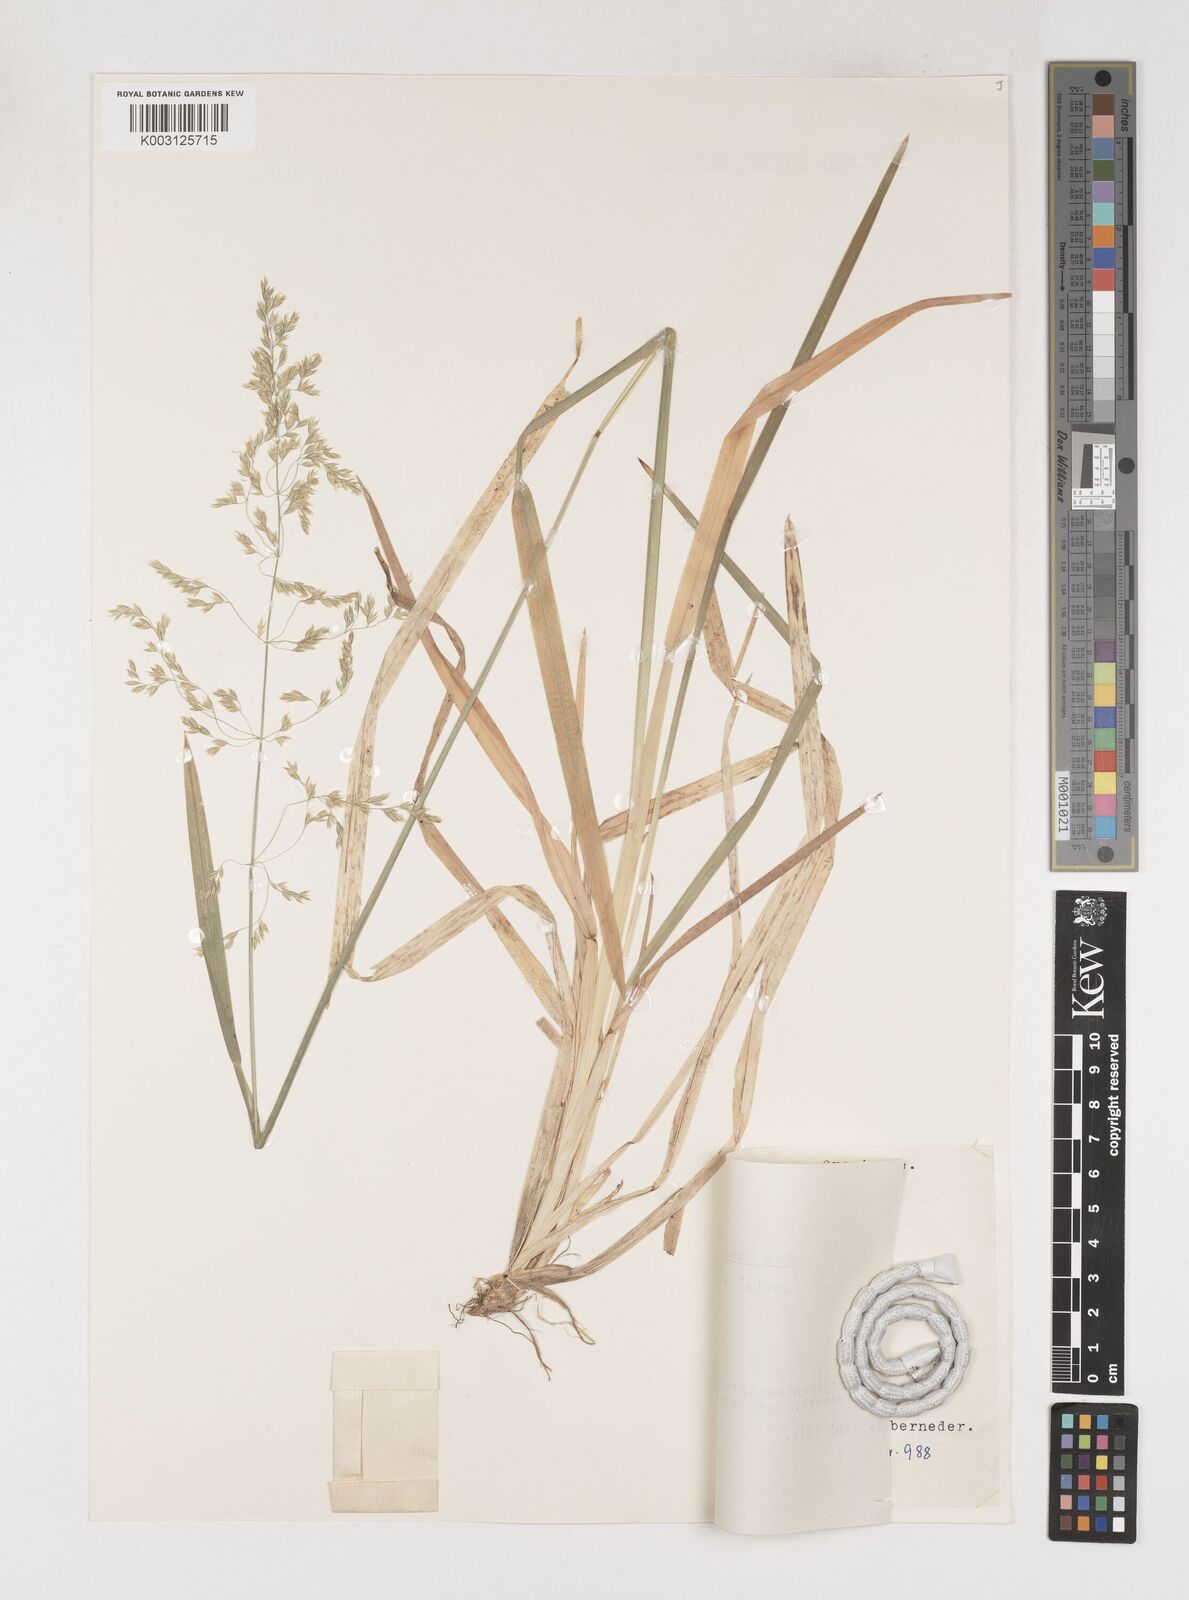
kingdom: Plantae
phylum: Tracheophyta
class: Liliopsida
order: Poales
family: Poaceae
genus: Poa
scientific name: Poa chaixii
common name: Broad-leaved meadow-grass
